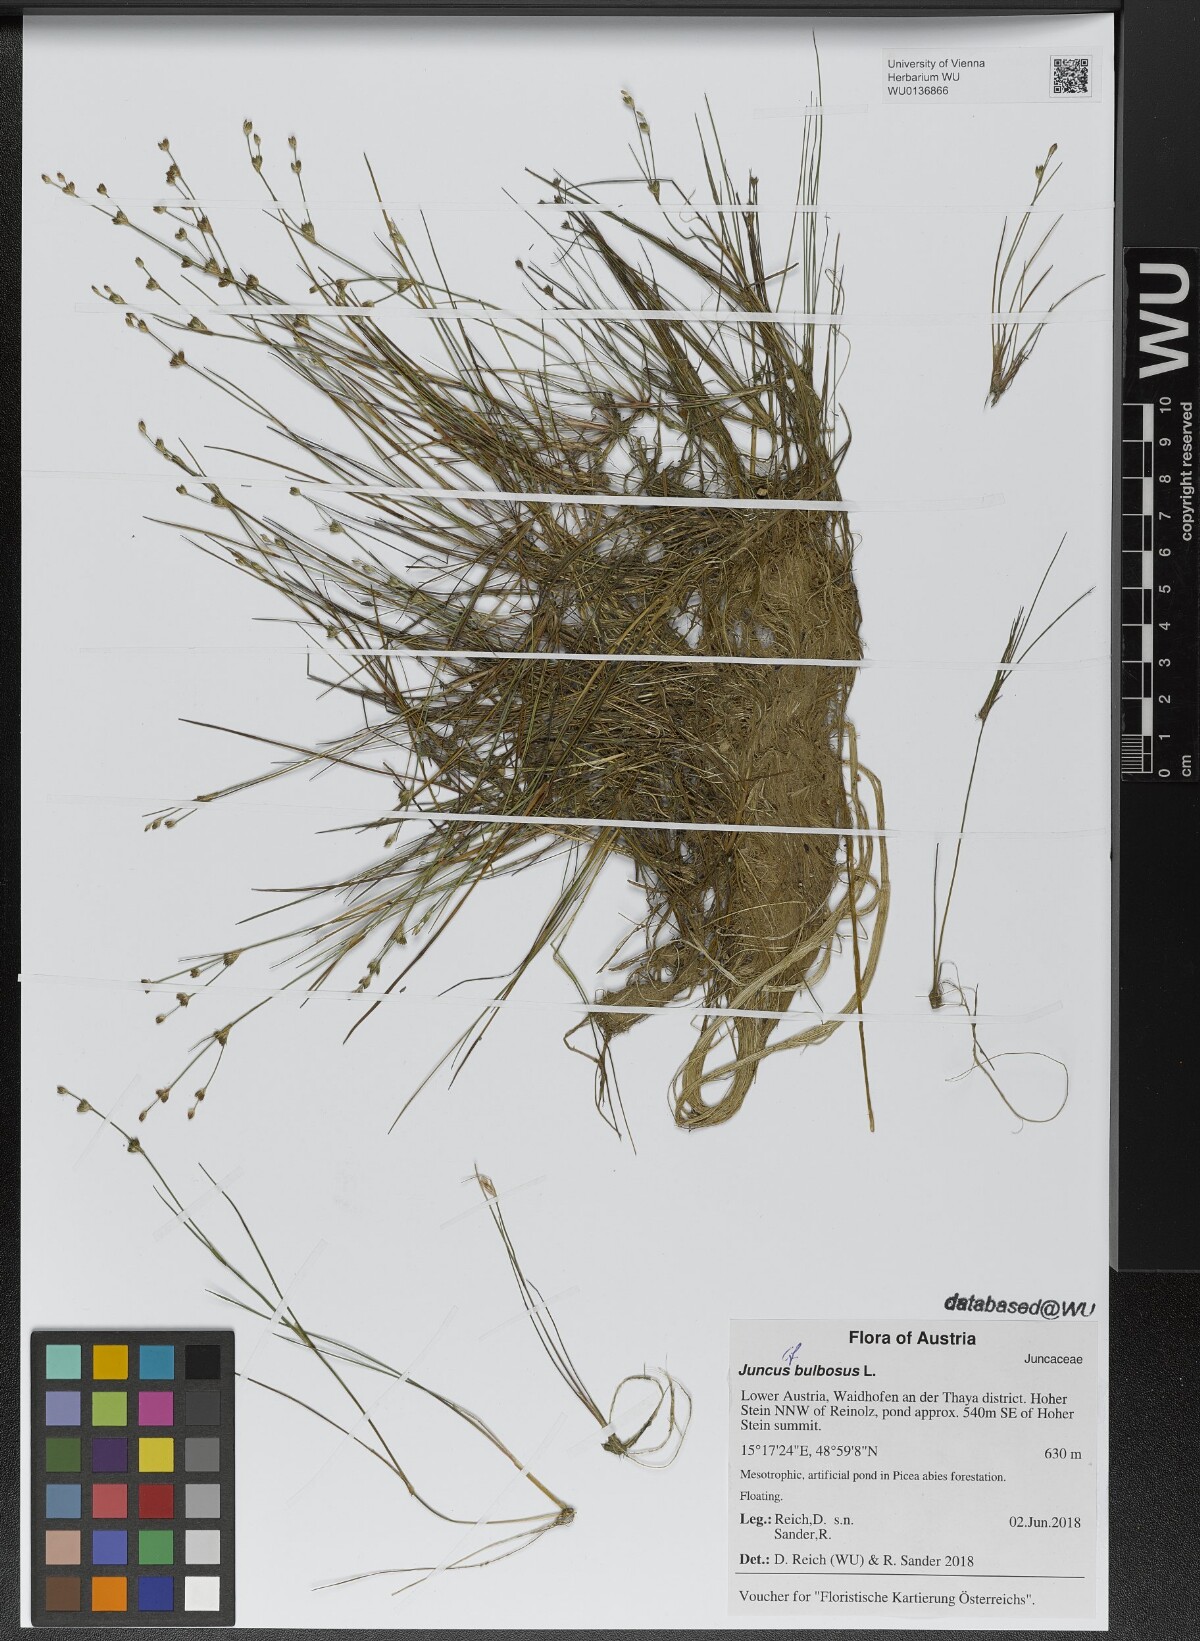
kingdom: Plantae
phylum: Tracheophyta
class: Liliopsida
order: Poales
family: Juncaceae
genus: Juncus
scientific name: Juncus bulbosus
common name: Bulbous rush
